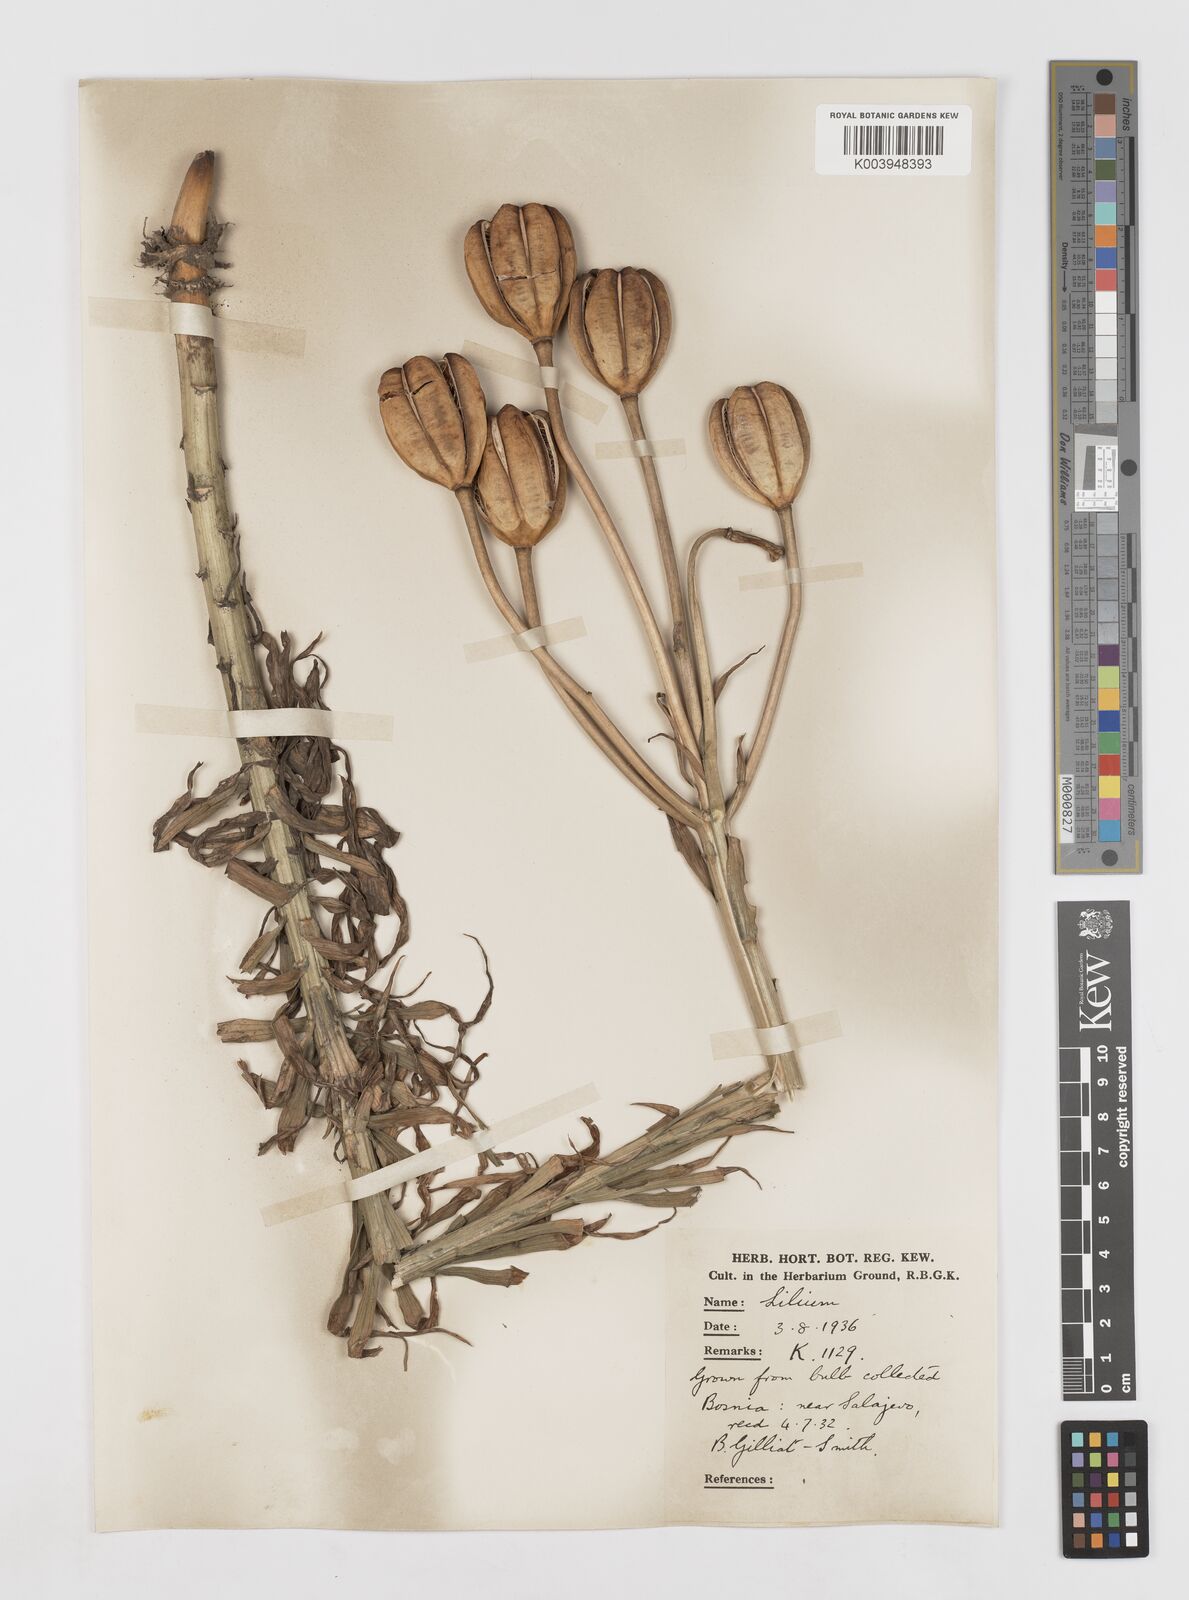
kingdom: Plantae
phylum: Tracheophyta
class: Liliopsida
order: Liliales
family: Liliaceae
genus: Lilium
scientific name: Lilium bosniacum
